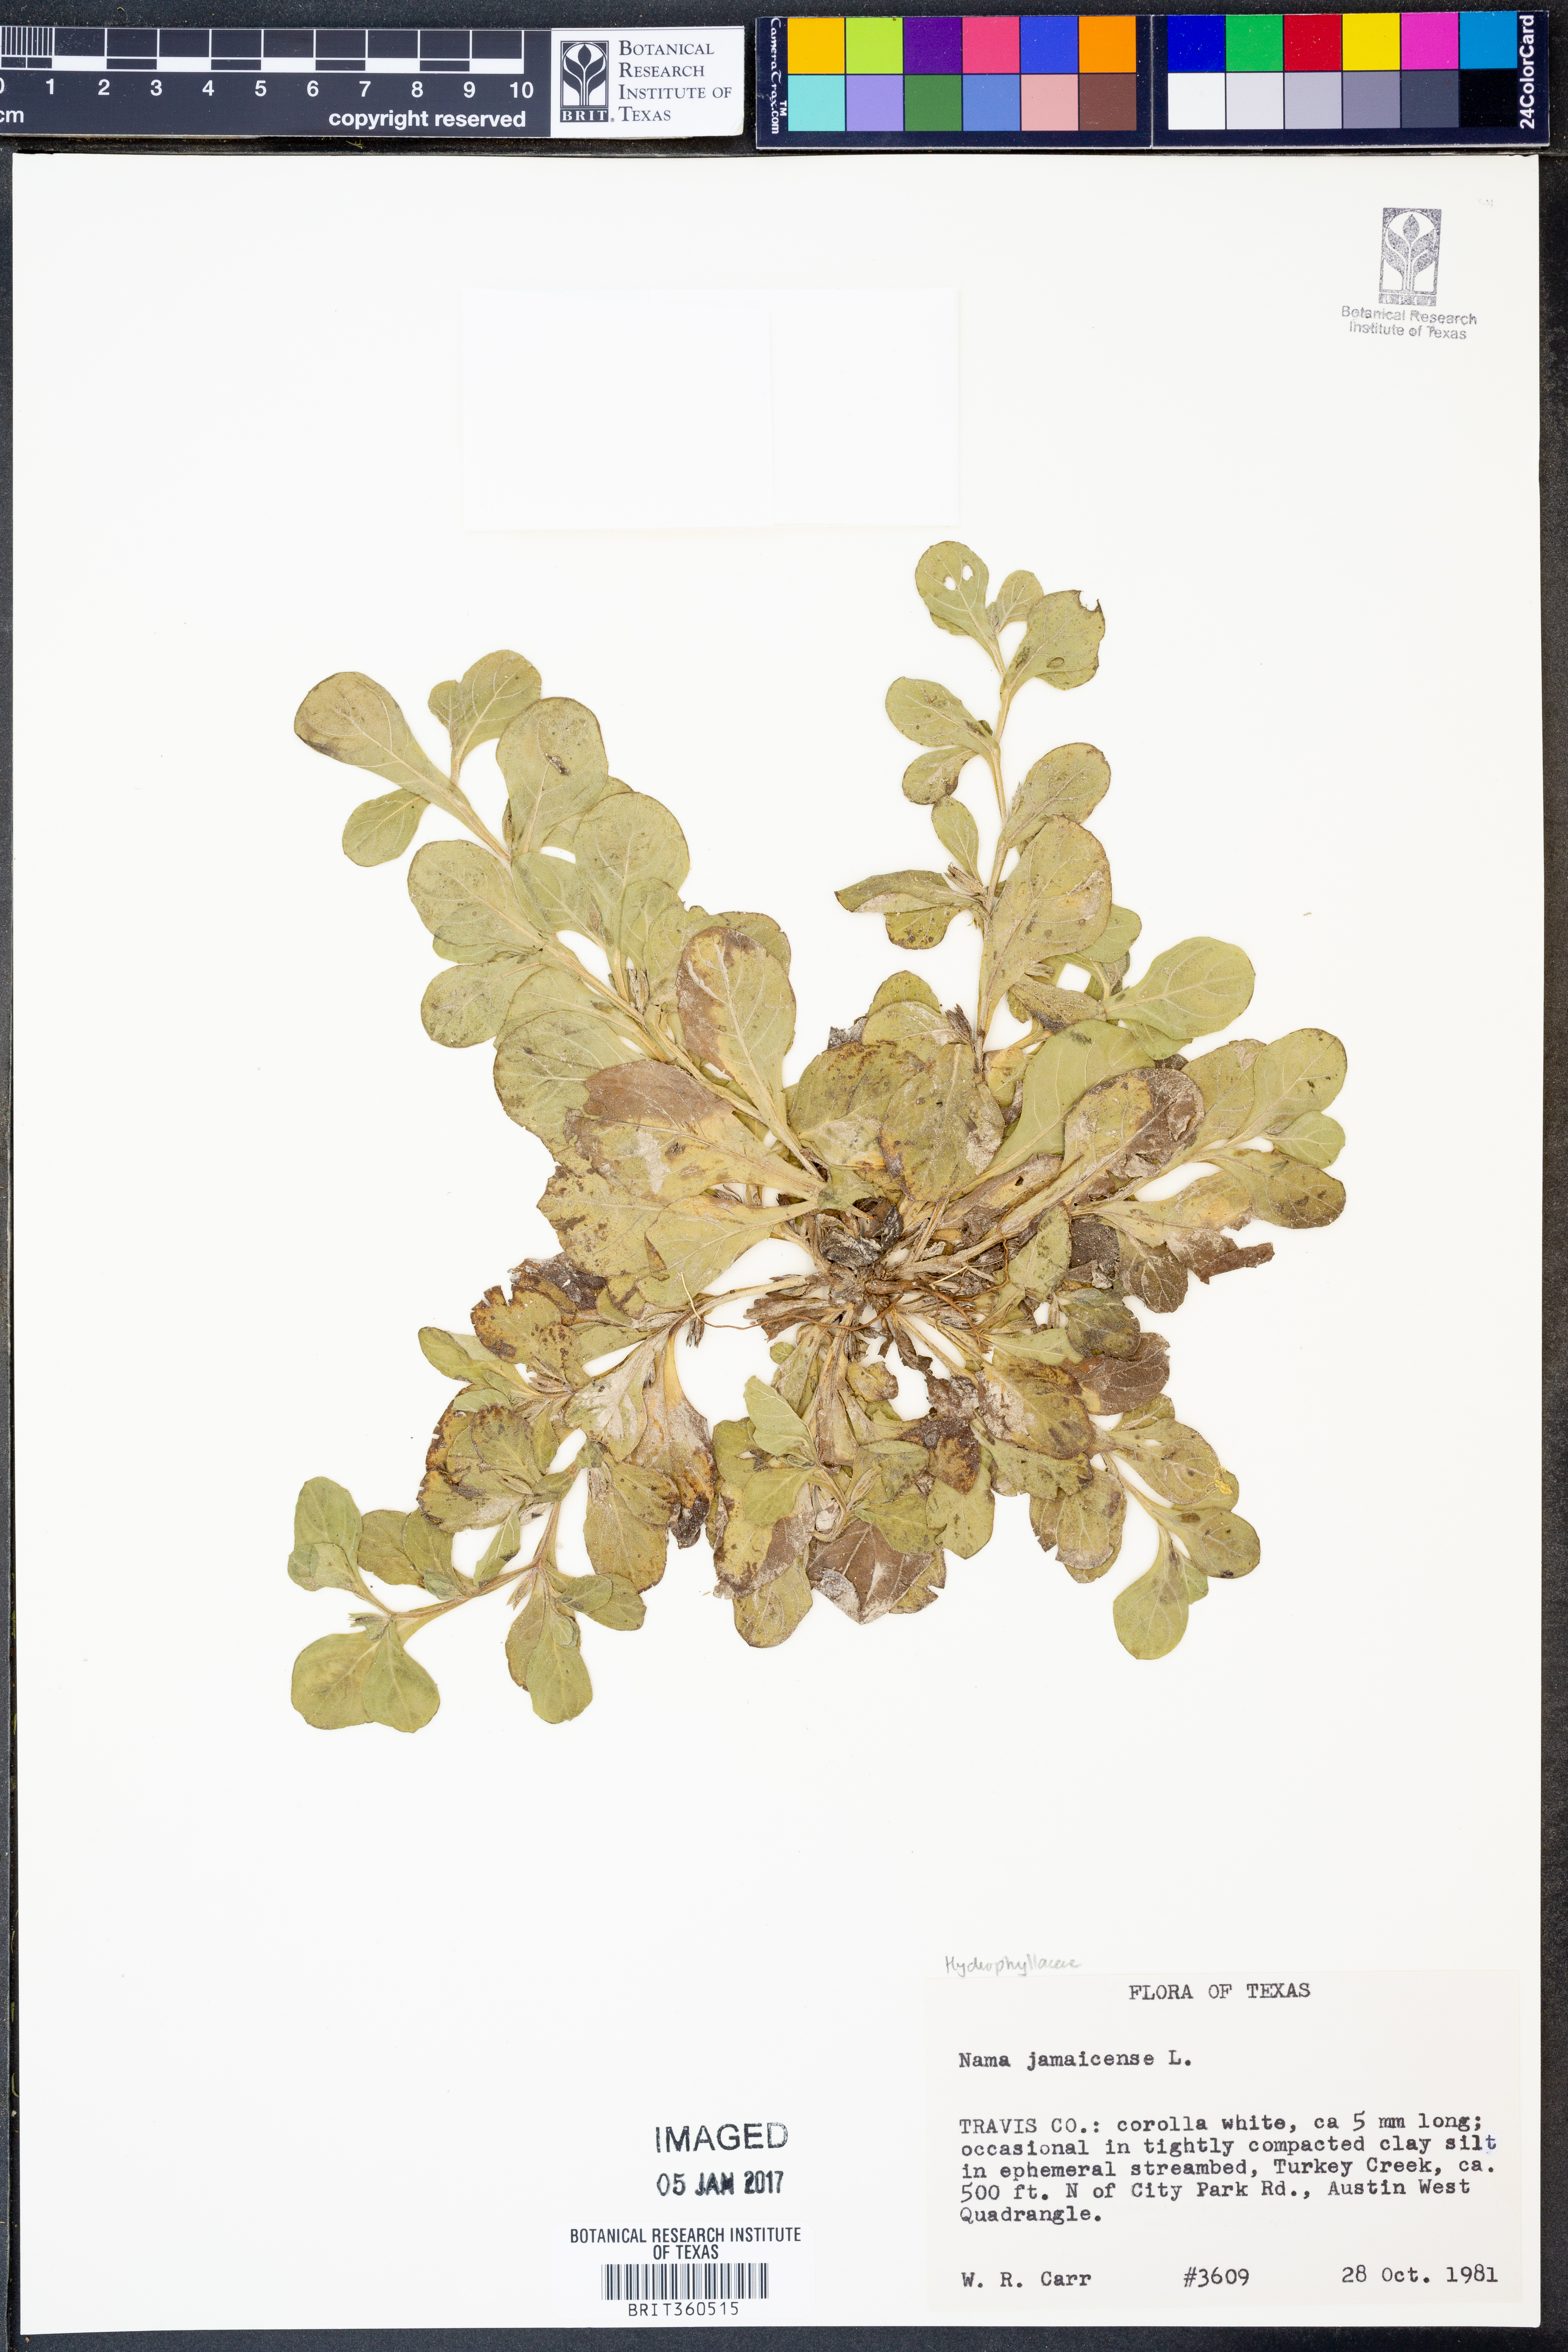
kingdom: Plantae
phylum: Tracheophyta
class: Magnoliopsida
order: Boraginales
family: Namaceae
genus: Nama
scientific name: Nama jamaicense
